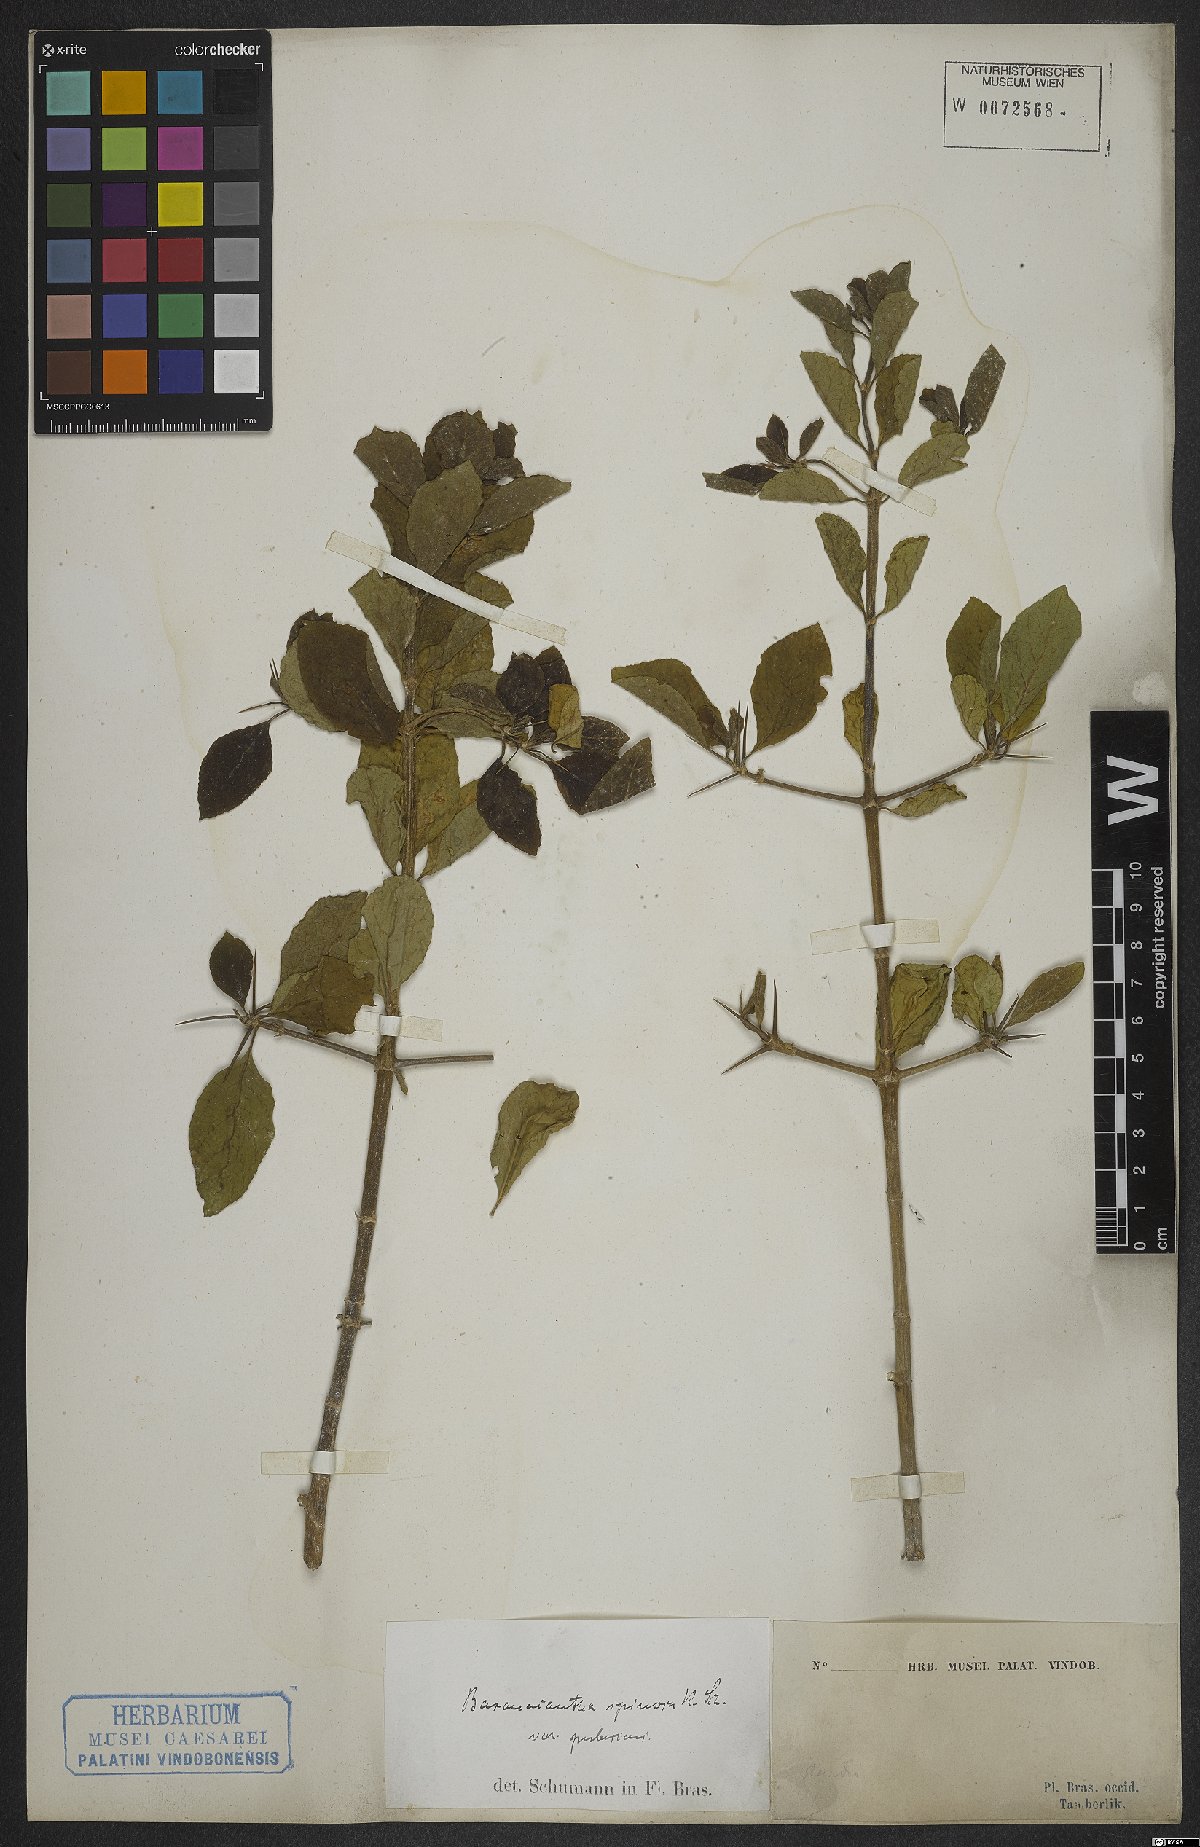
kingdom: Plantae
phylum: Tracheophyta
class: Magnoliopsida
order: Gentianales
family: Rubiaceae
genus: Randia
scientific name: Randia armata
